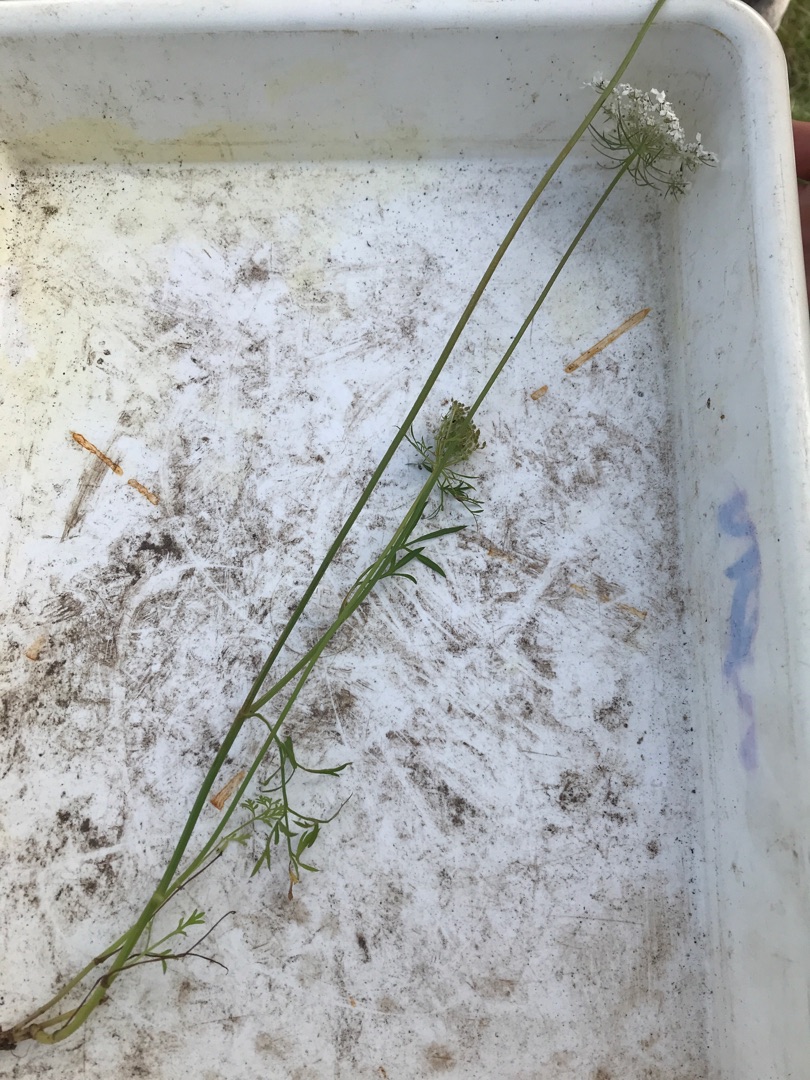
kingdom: Plantae
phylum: Tracheophyta
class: Magnoliopsida
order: Apiales
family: Apiaceae
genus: Daucus
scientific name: Daucus carota
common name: Gulerod
